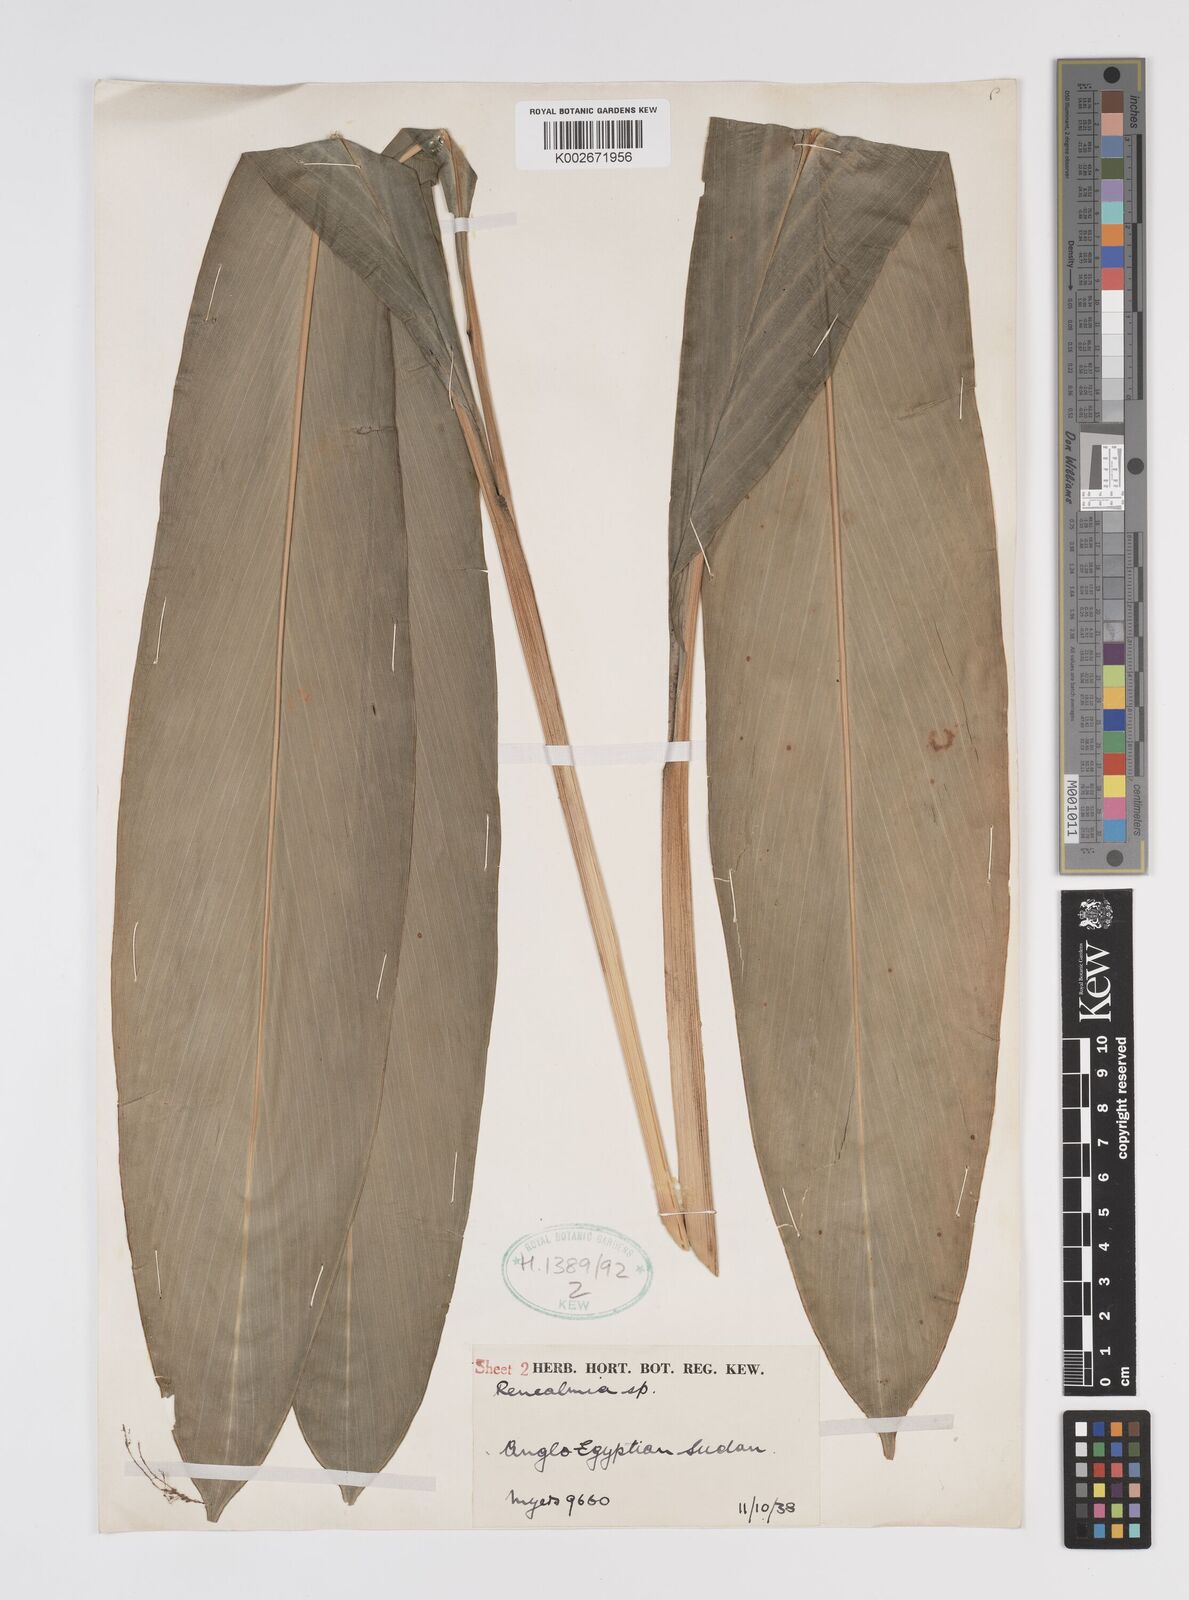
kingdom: Plantae
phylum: Tracheophyta
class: Liliopsida
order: Zingiberales
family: Zingiberaceae
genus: Renealmia
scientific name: Renealmia congolana
